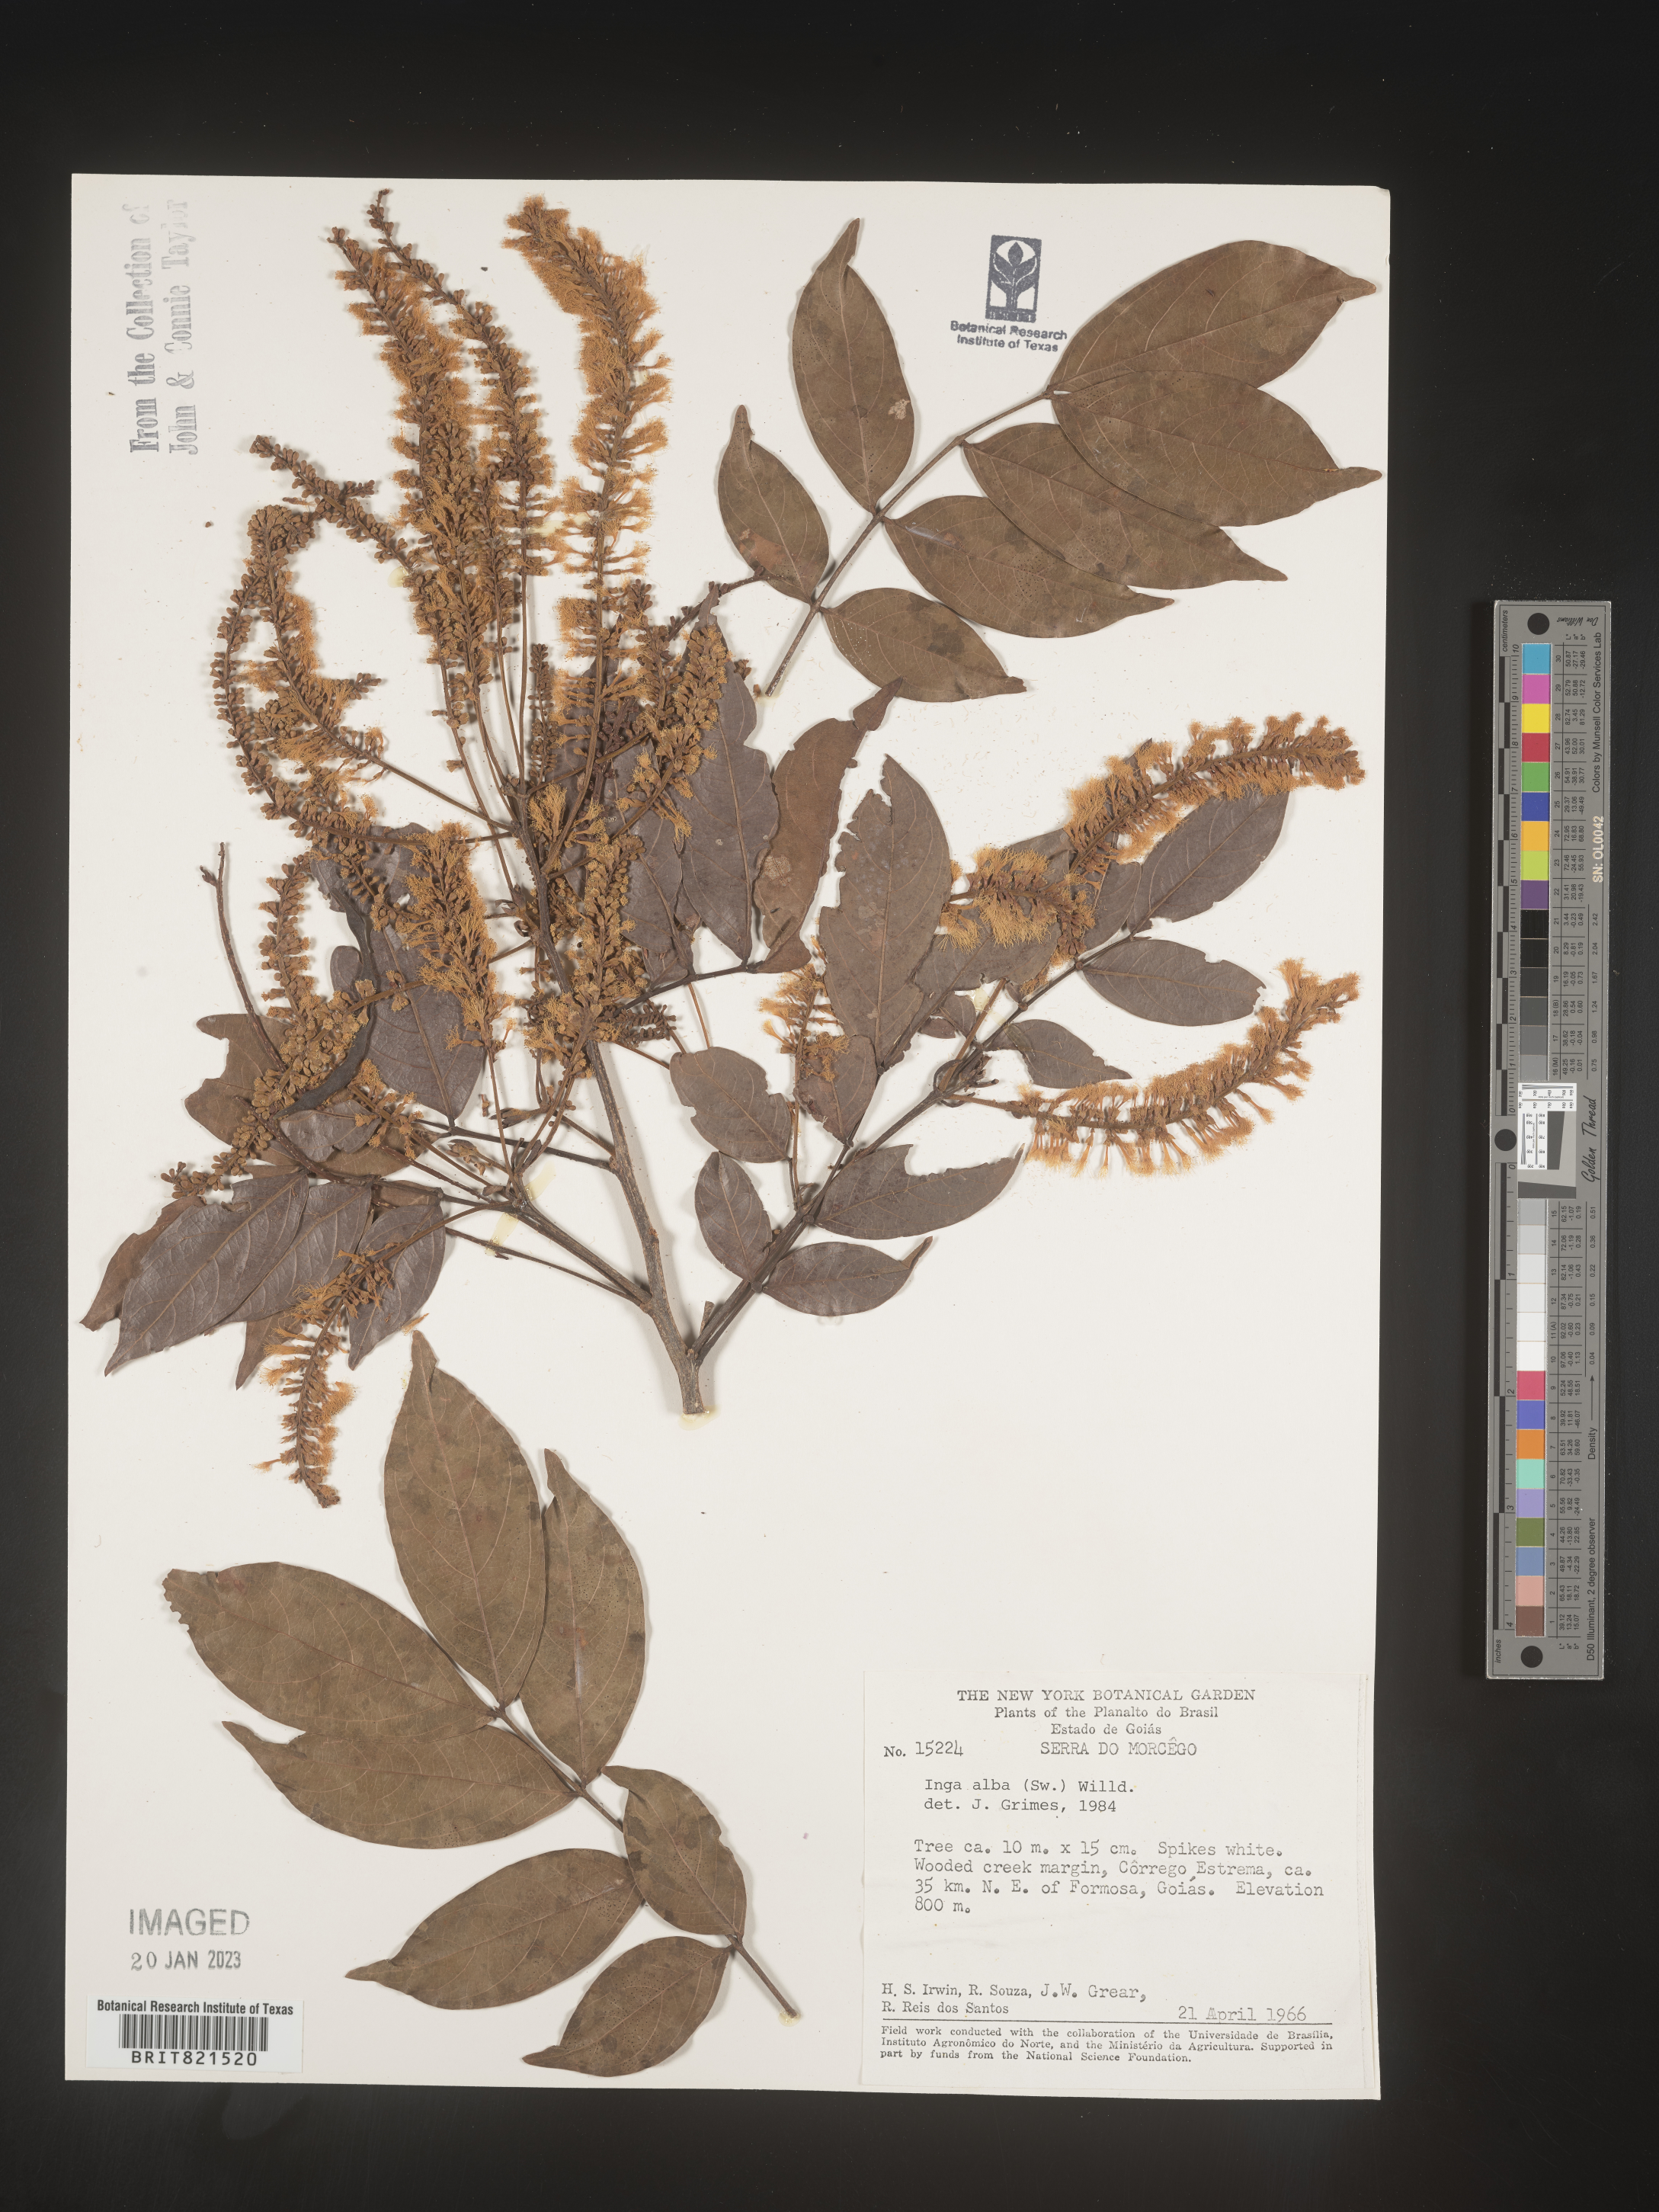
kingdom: Plantae
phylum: Tracheophyta
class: Magnoliopsida
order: Fabales
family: Fabaceae
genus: Inga
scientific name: Inga
